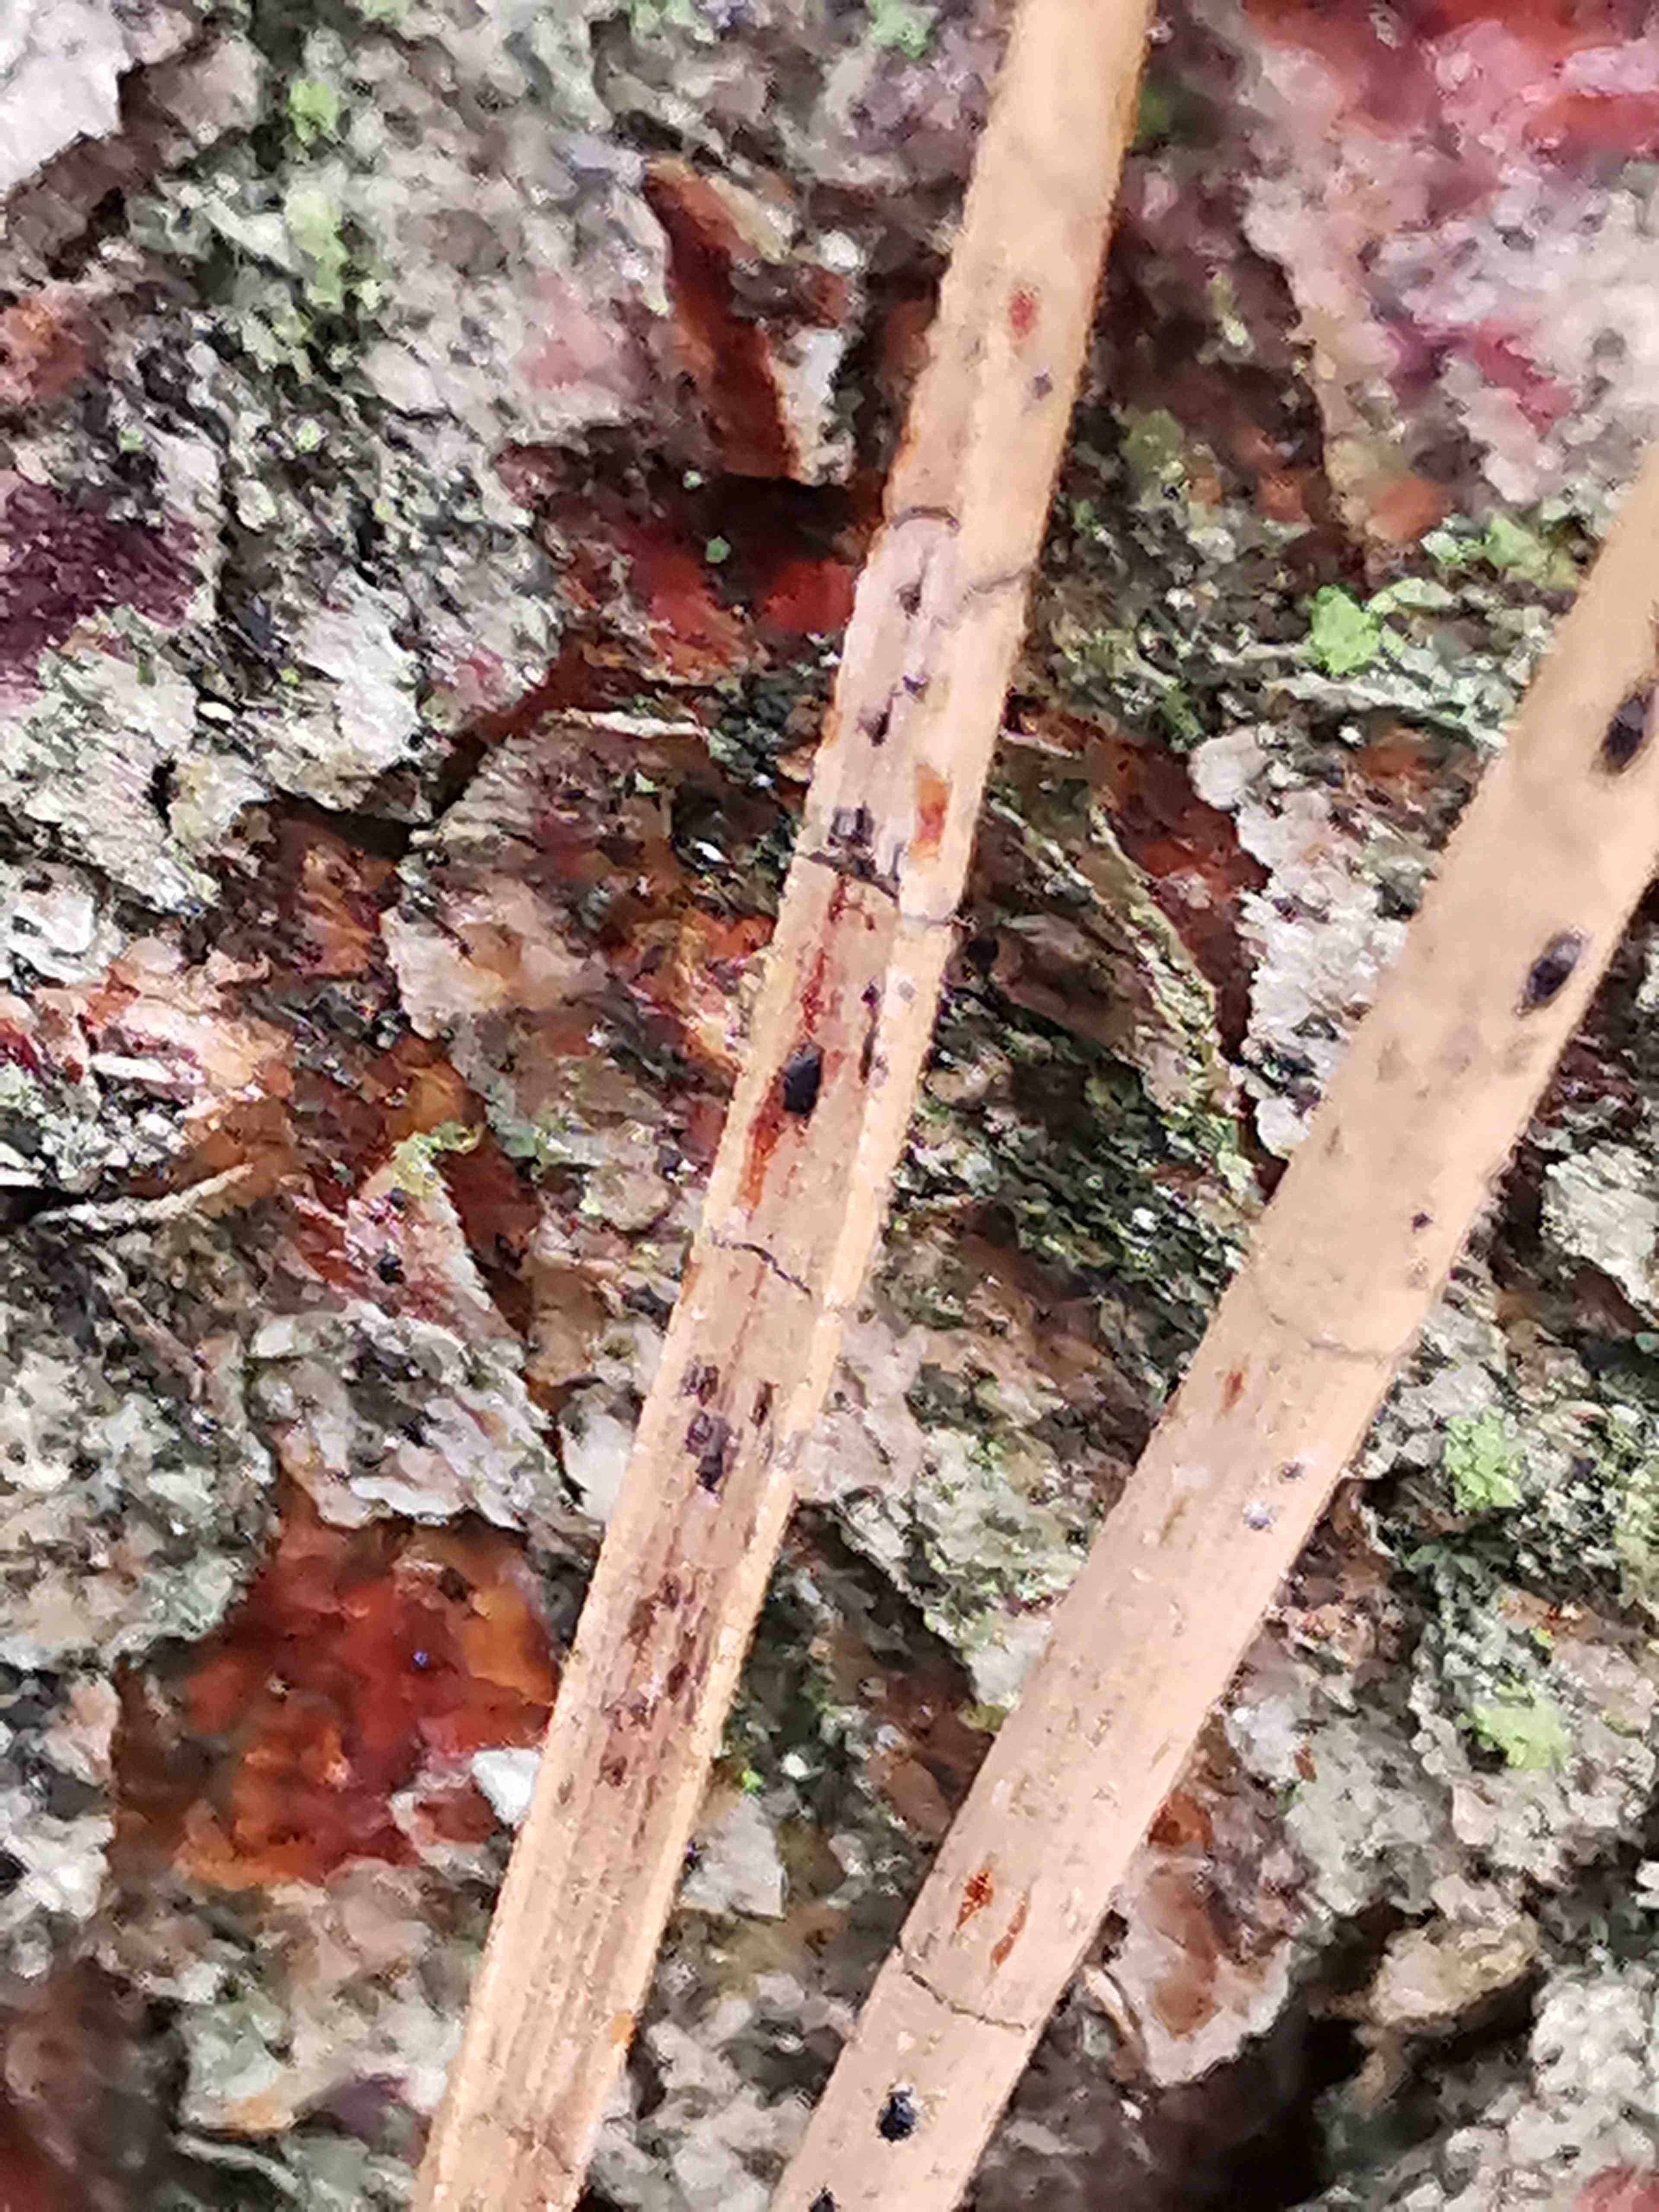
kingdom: Fungi
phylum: Ascomycota
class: Leotiomycetes
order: Rhytismatales
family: Rhytismataceae
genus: Lophodermium
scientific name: Lophodermium pinastri
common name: fyrre-fureplet
